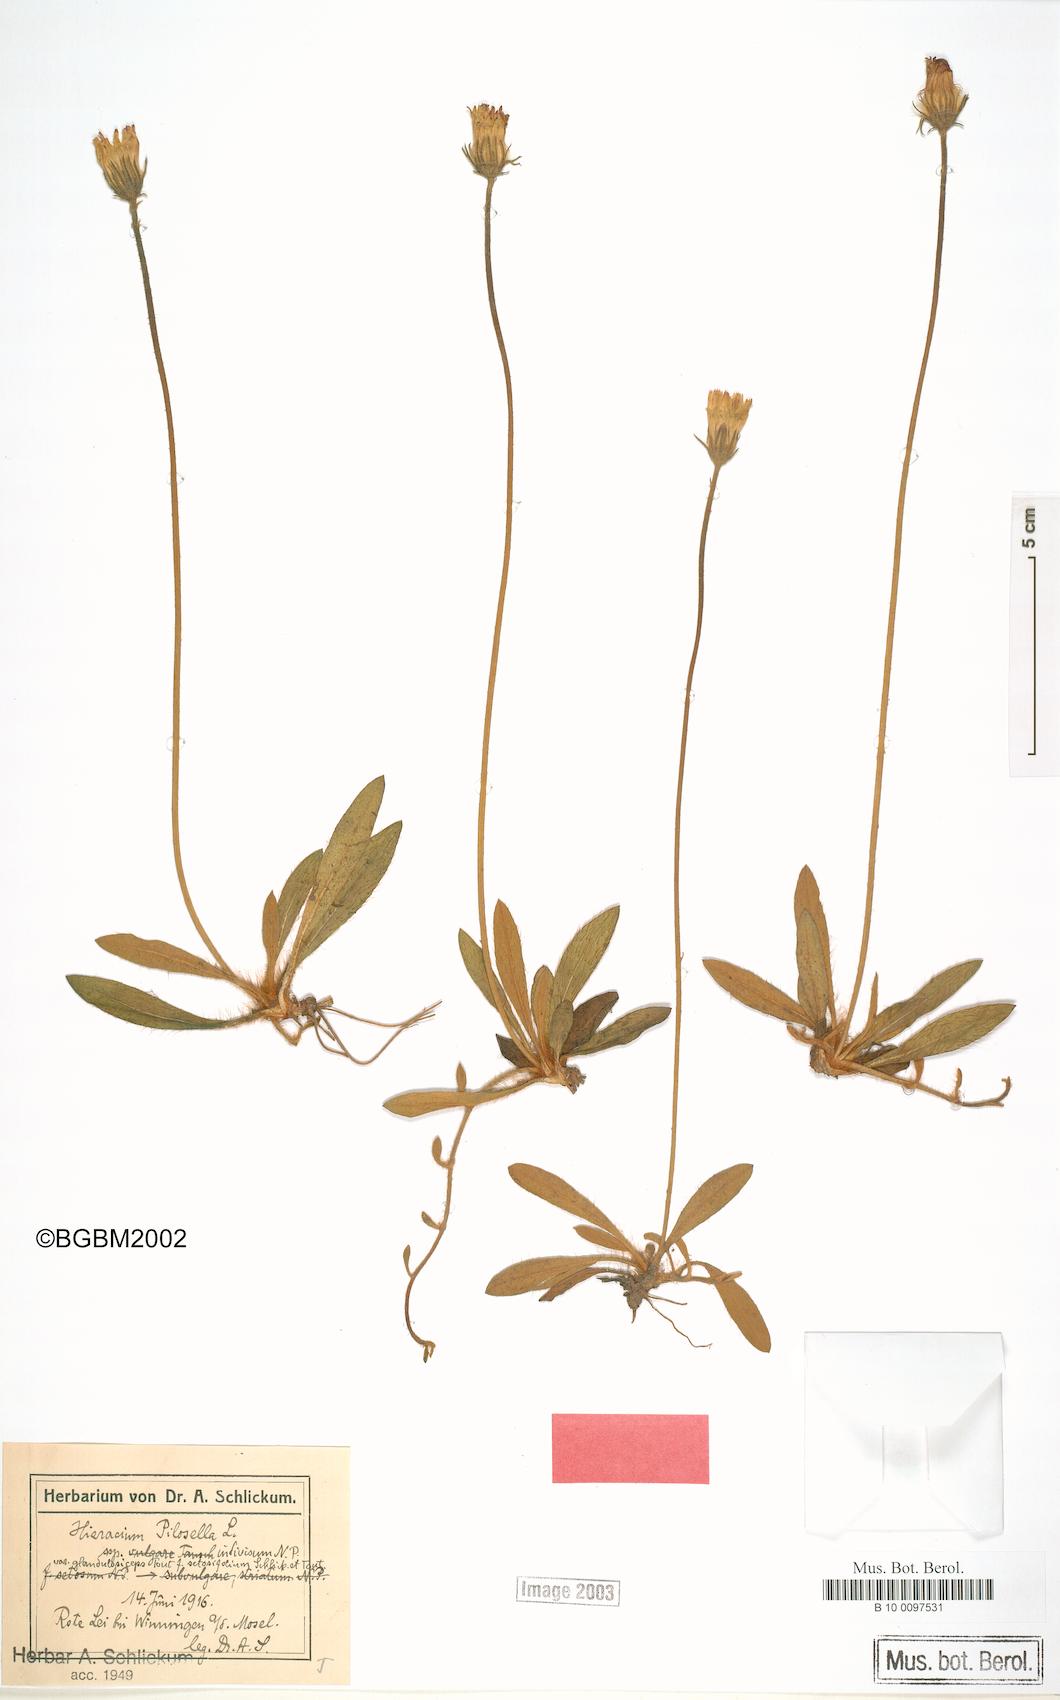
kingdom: Plantae
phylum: Tracheophyta
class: Magnoliopsida
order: Asterales
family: Asteraceae
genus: Pilosella
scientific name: Pilosella officinarum
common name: Mouse-ear hawkweed
